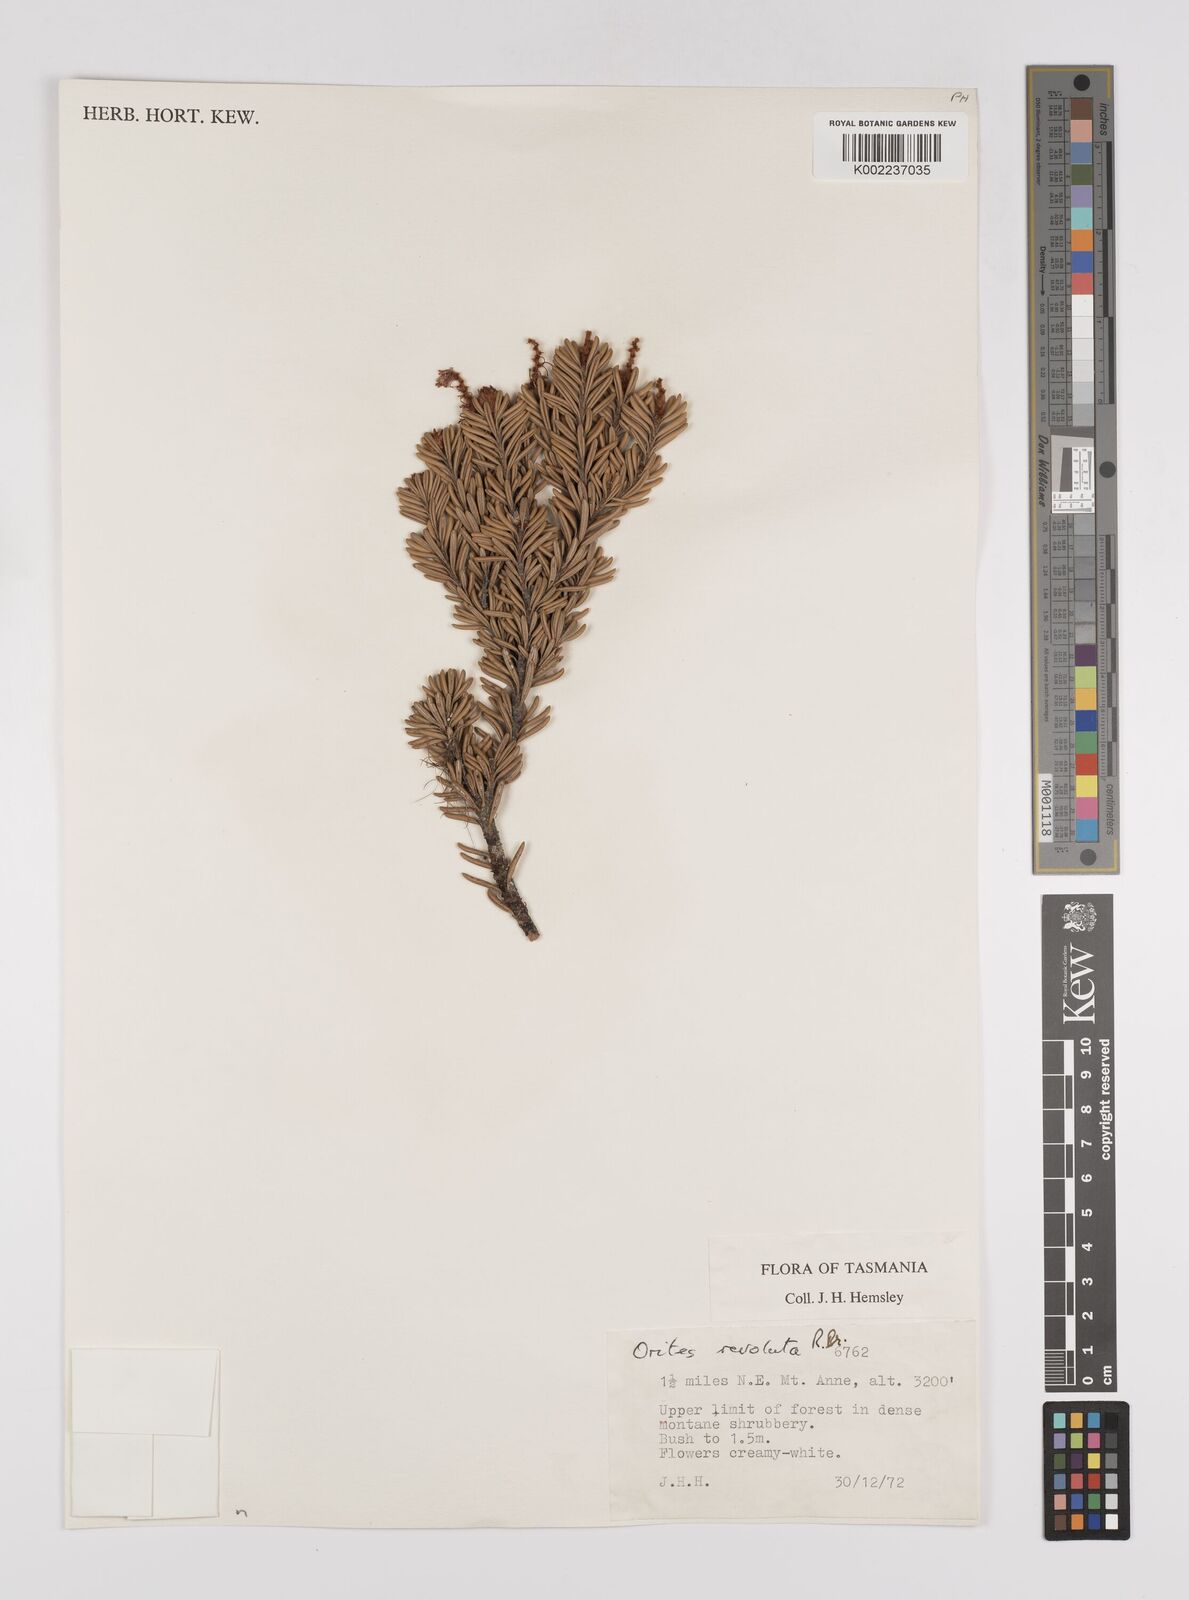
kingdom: Plantae
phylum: Tracheophyta
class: Magnoliopsida
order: Proteales
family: Proteaceae
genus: Orites
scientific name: Orites revolutus
